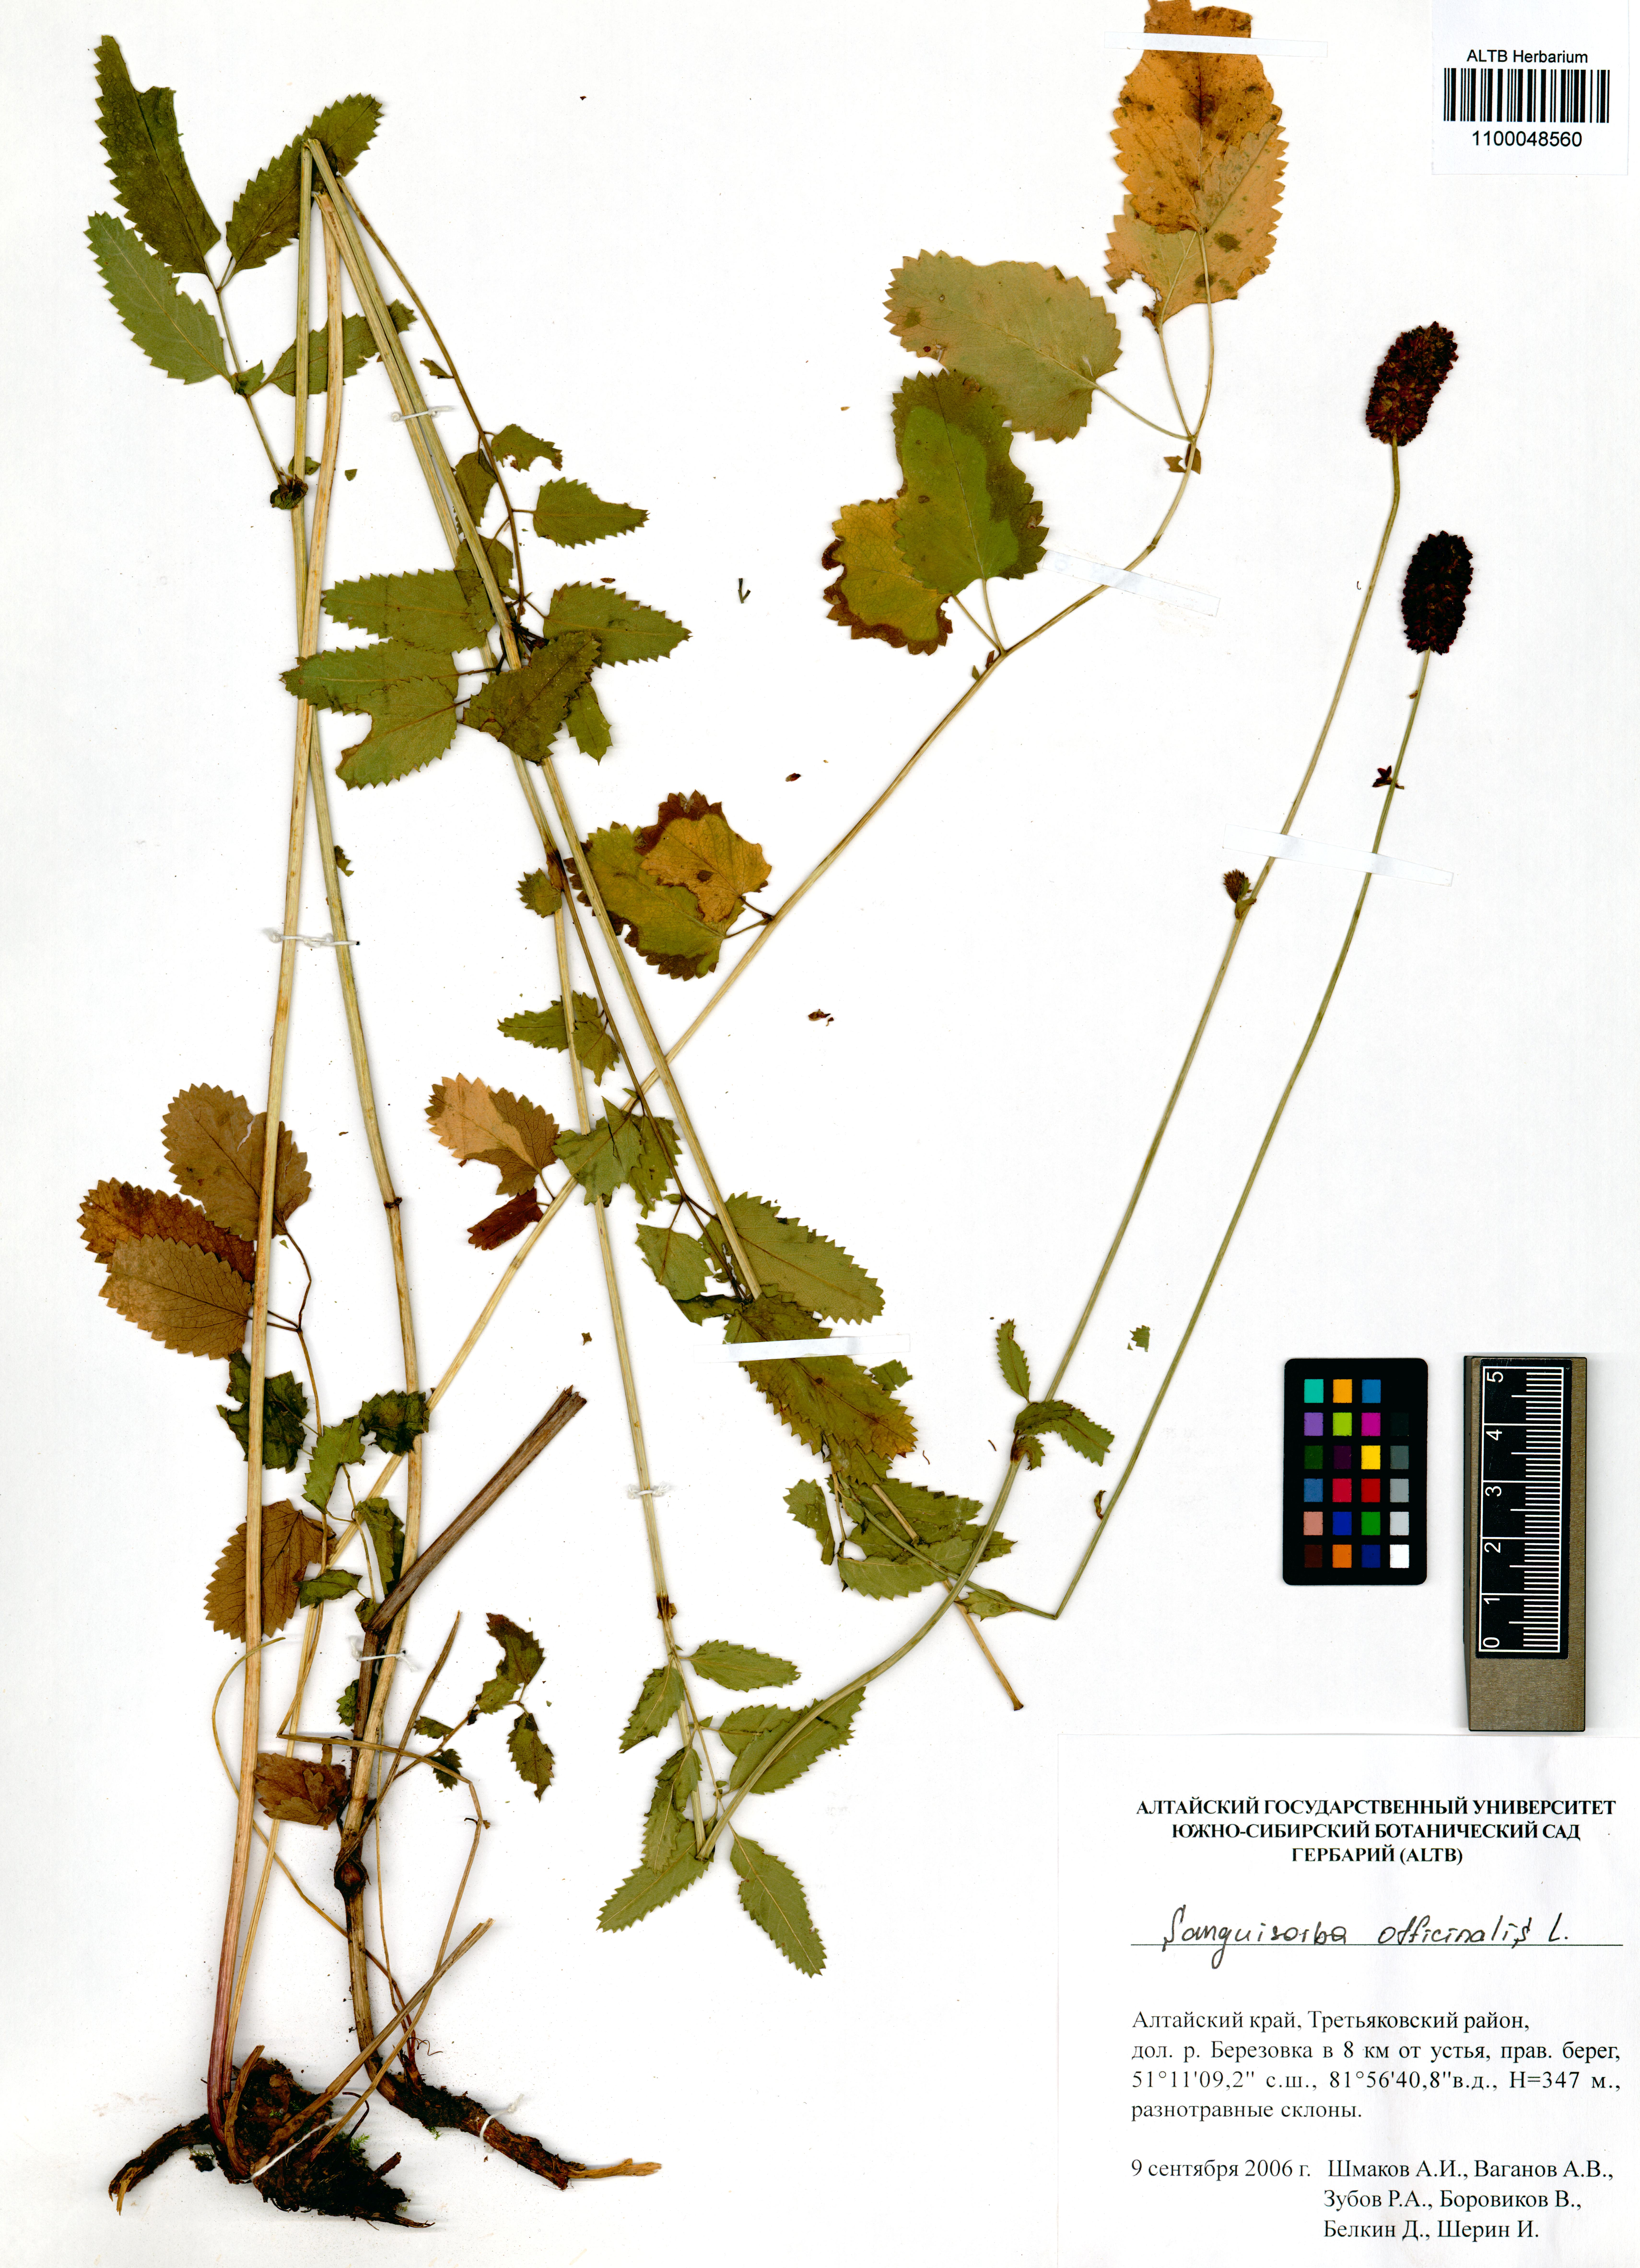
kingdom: Plantae
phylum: Tracheophyta
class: Magnoliopsida
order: Rosales
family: Rosaceae
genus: Sanguisorba
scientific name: Sanguisorba officinalis
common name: Great burnet
